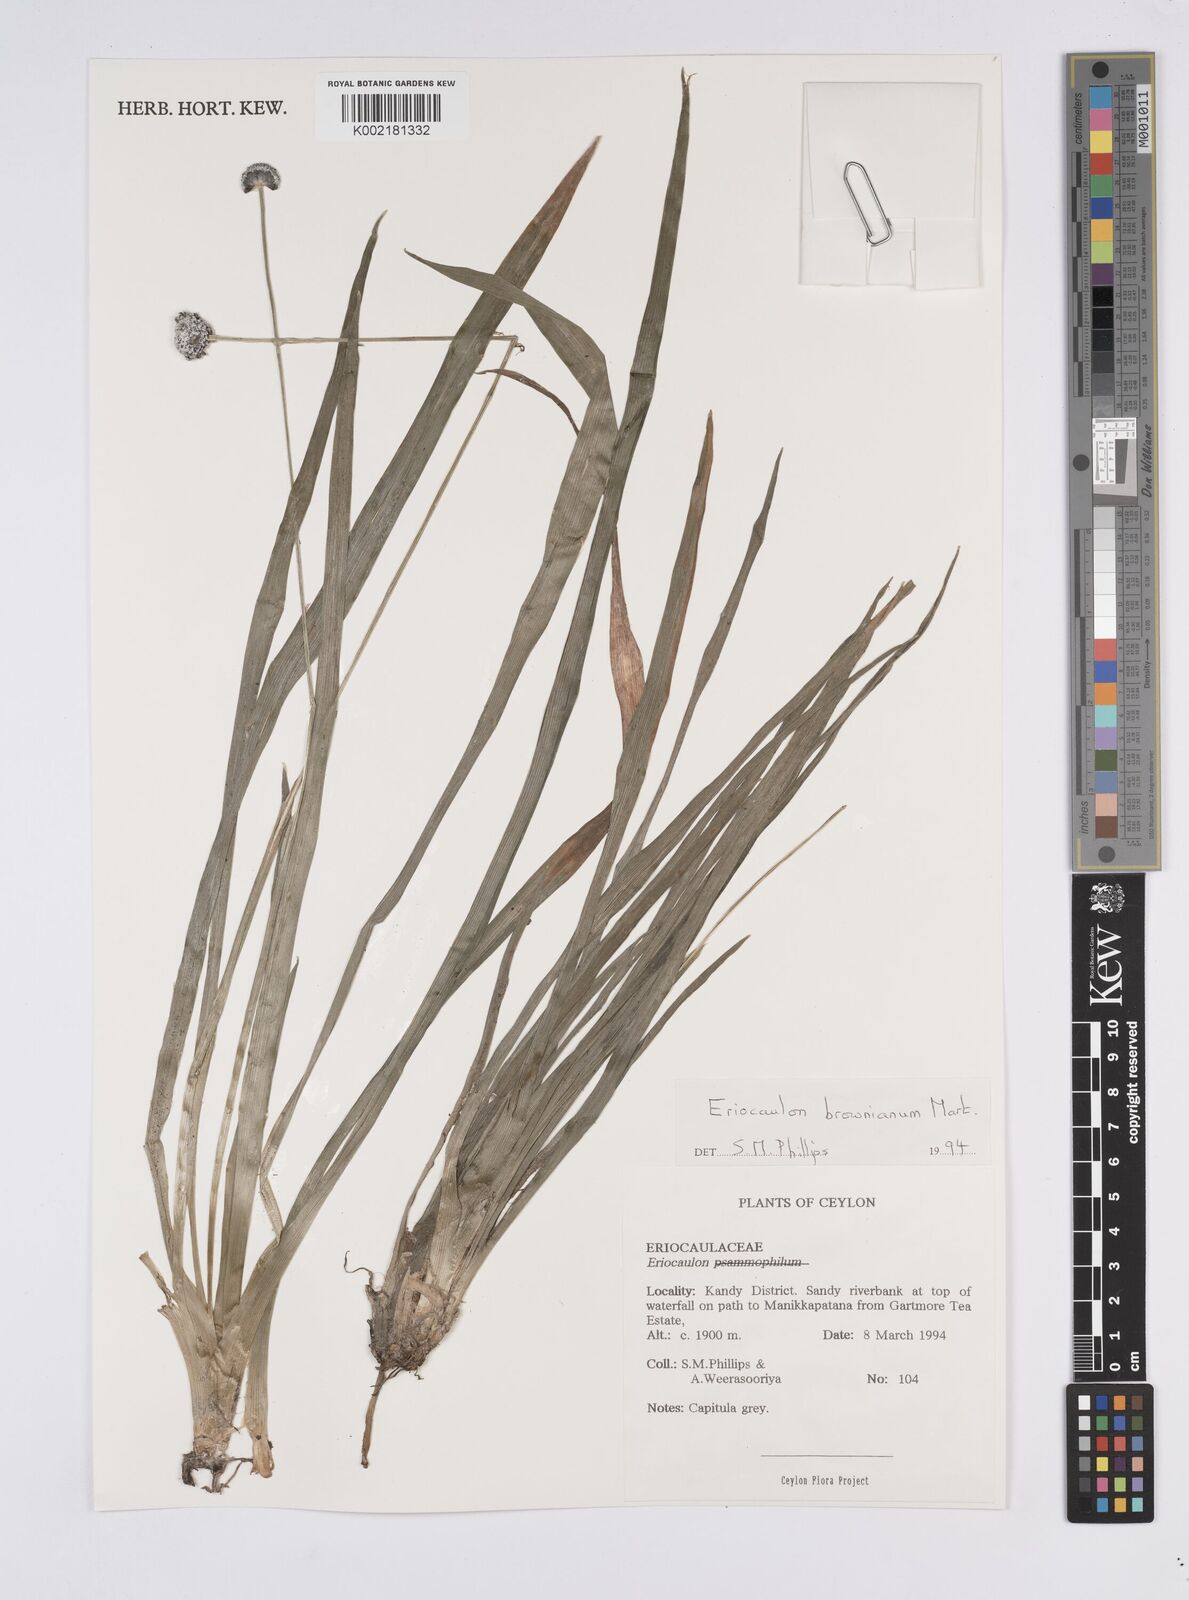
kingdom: Plantae
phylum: Tracheophyta
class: Liliopsida
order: Poales
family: Eriocaulaceae
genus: Eriocaulon
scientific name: Eriocaulon brownianum
